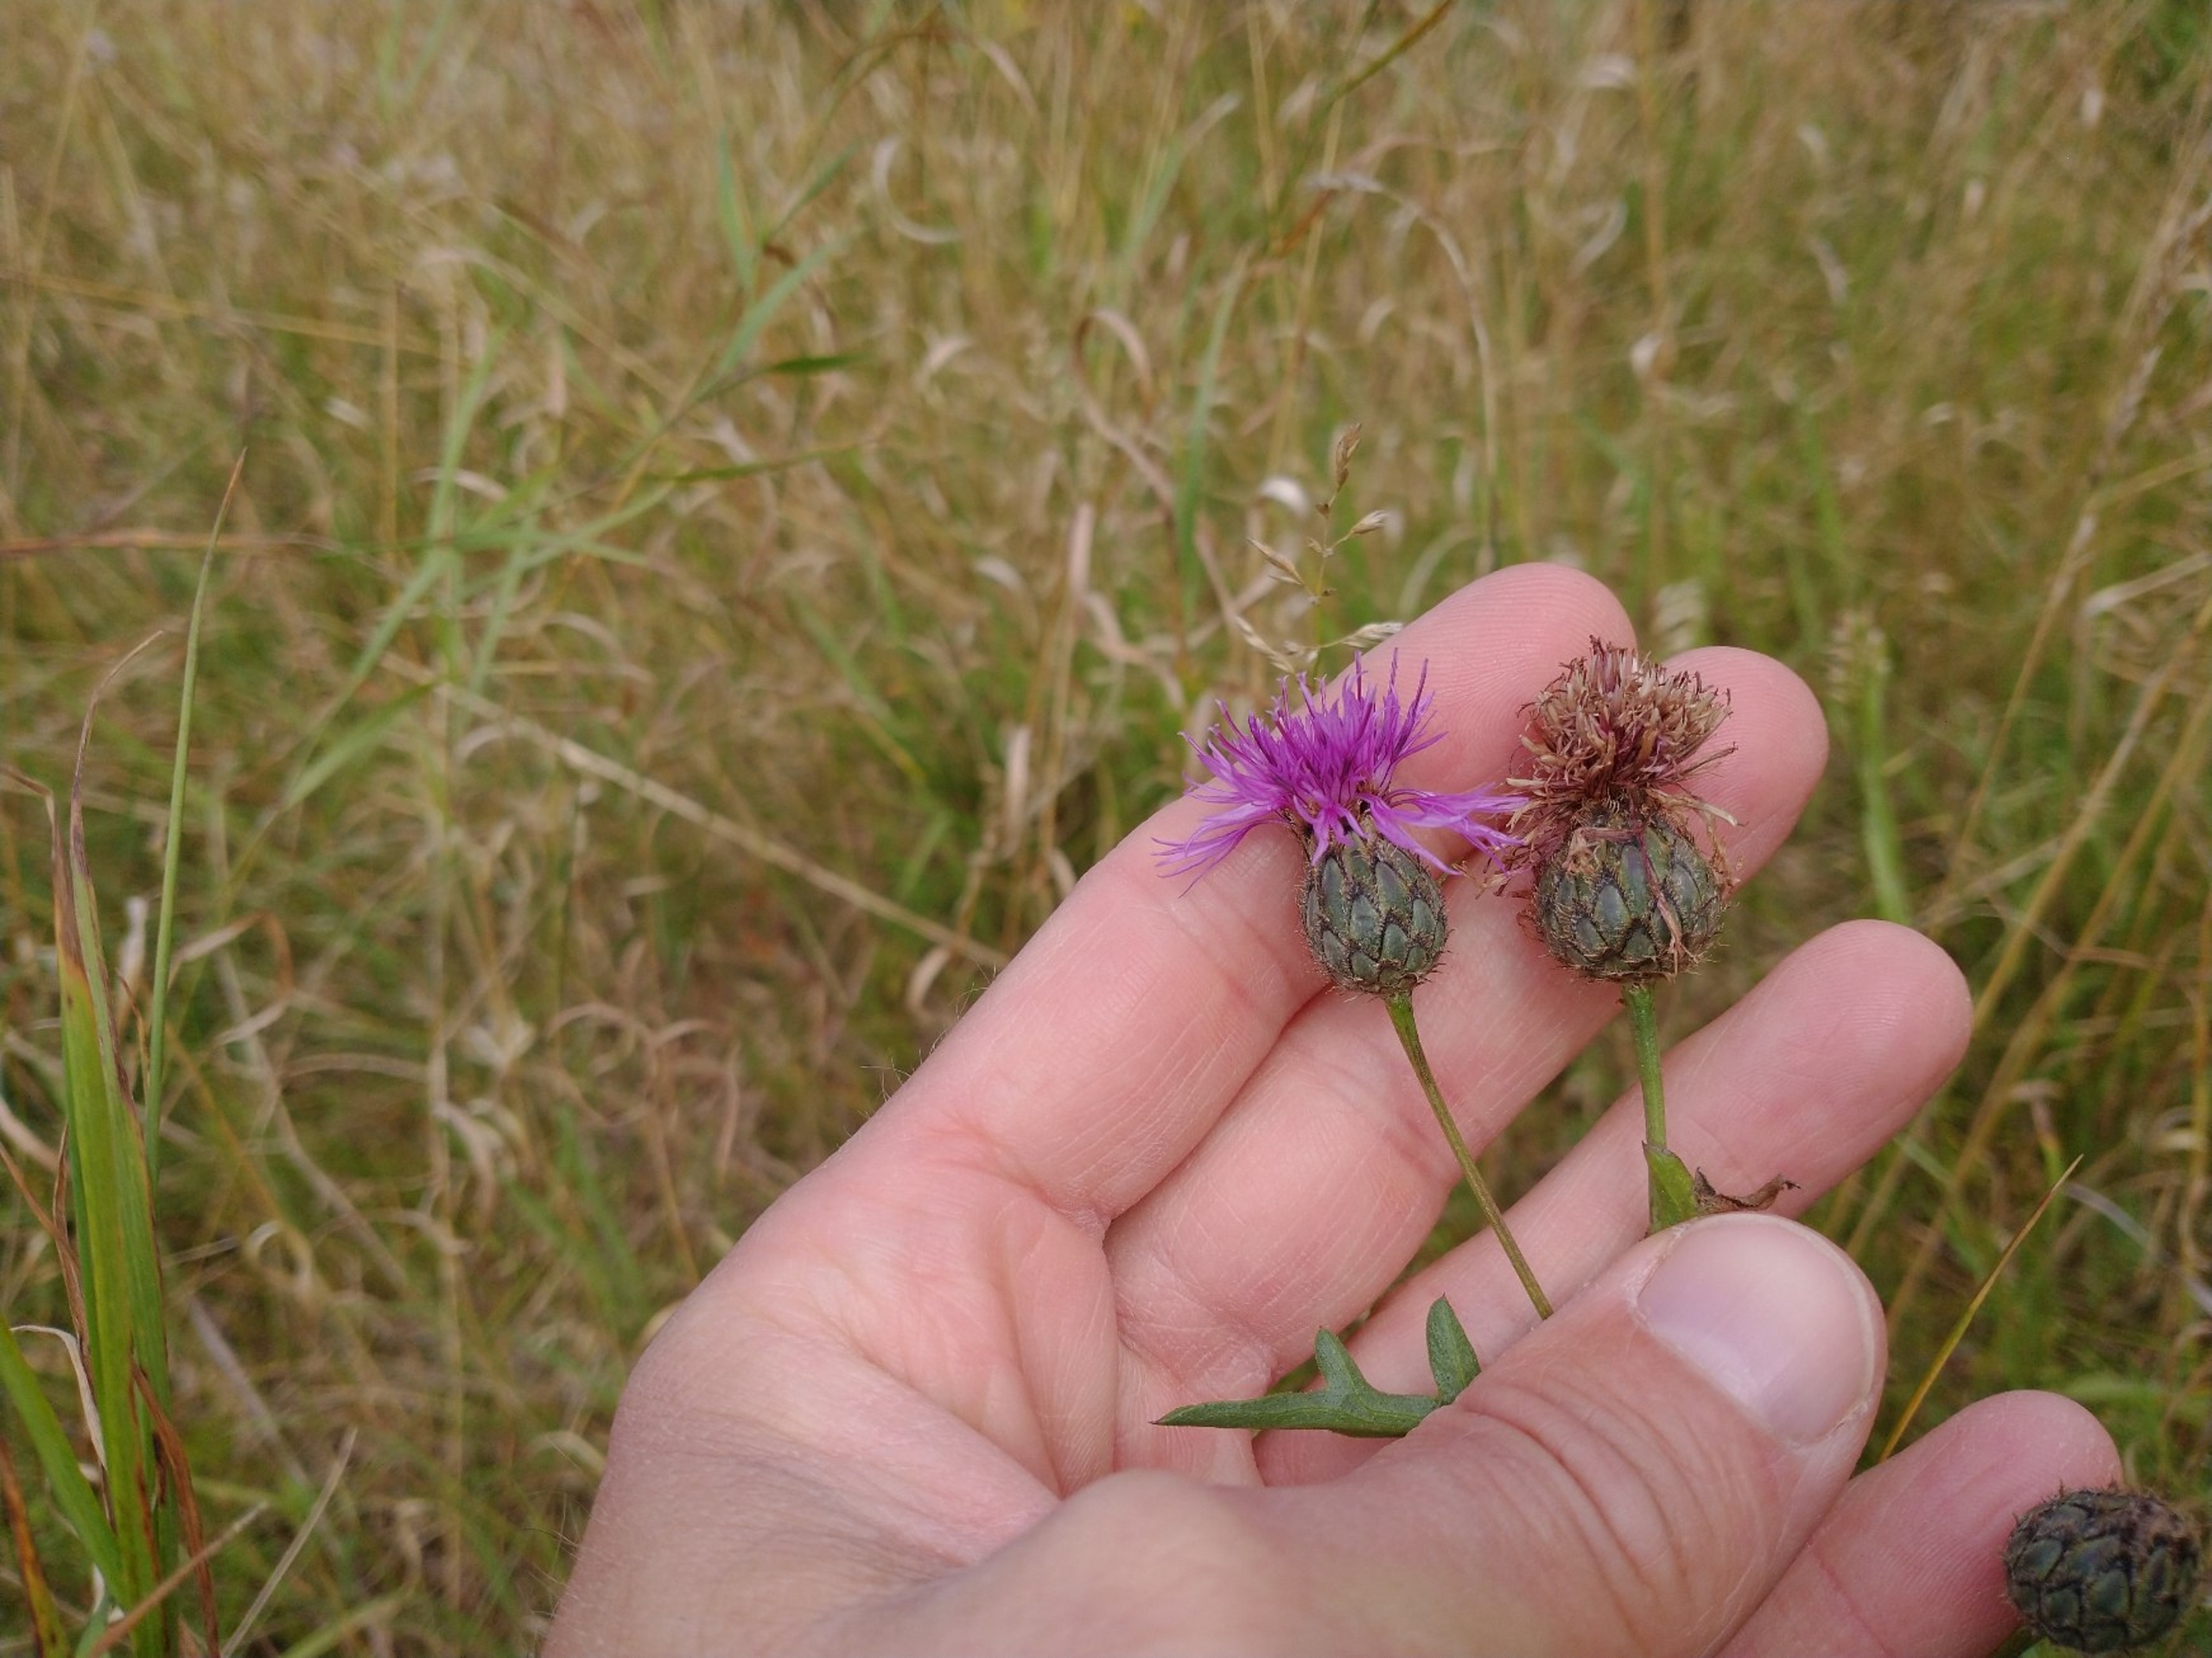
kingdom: Plantae
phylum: Tracheophyta
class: Magnoliopsida
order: Asterales
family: Asteraceae
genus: Centaurea
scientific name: Centaurea scabiosa
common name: Stor knopurt
